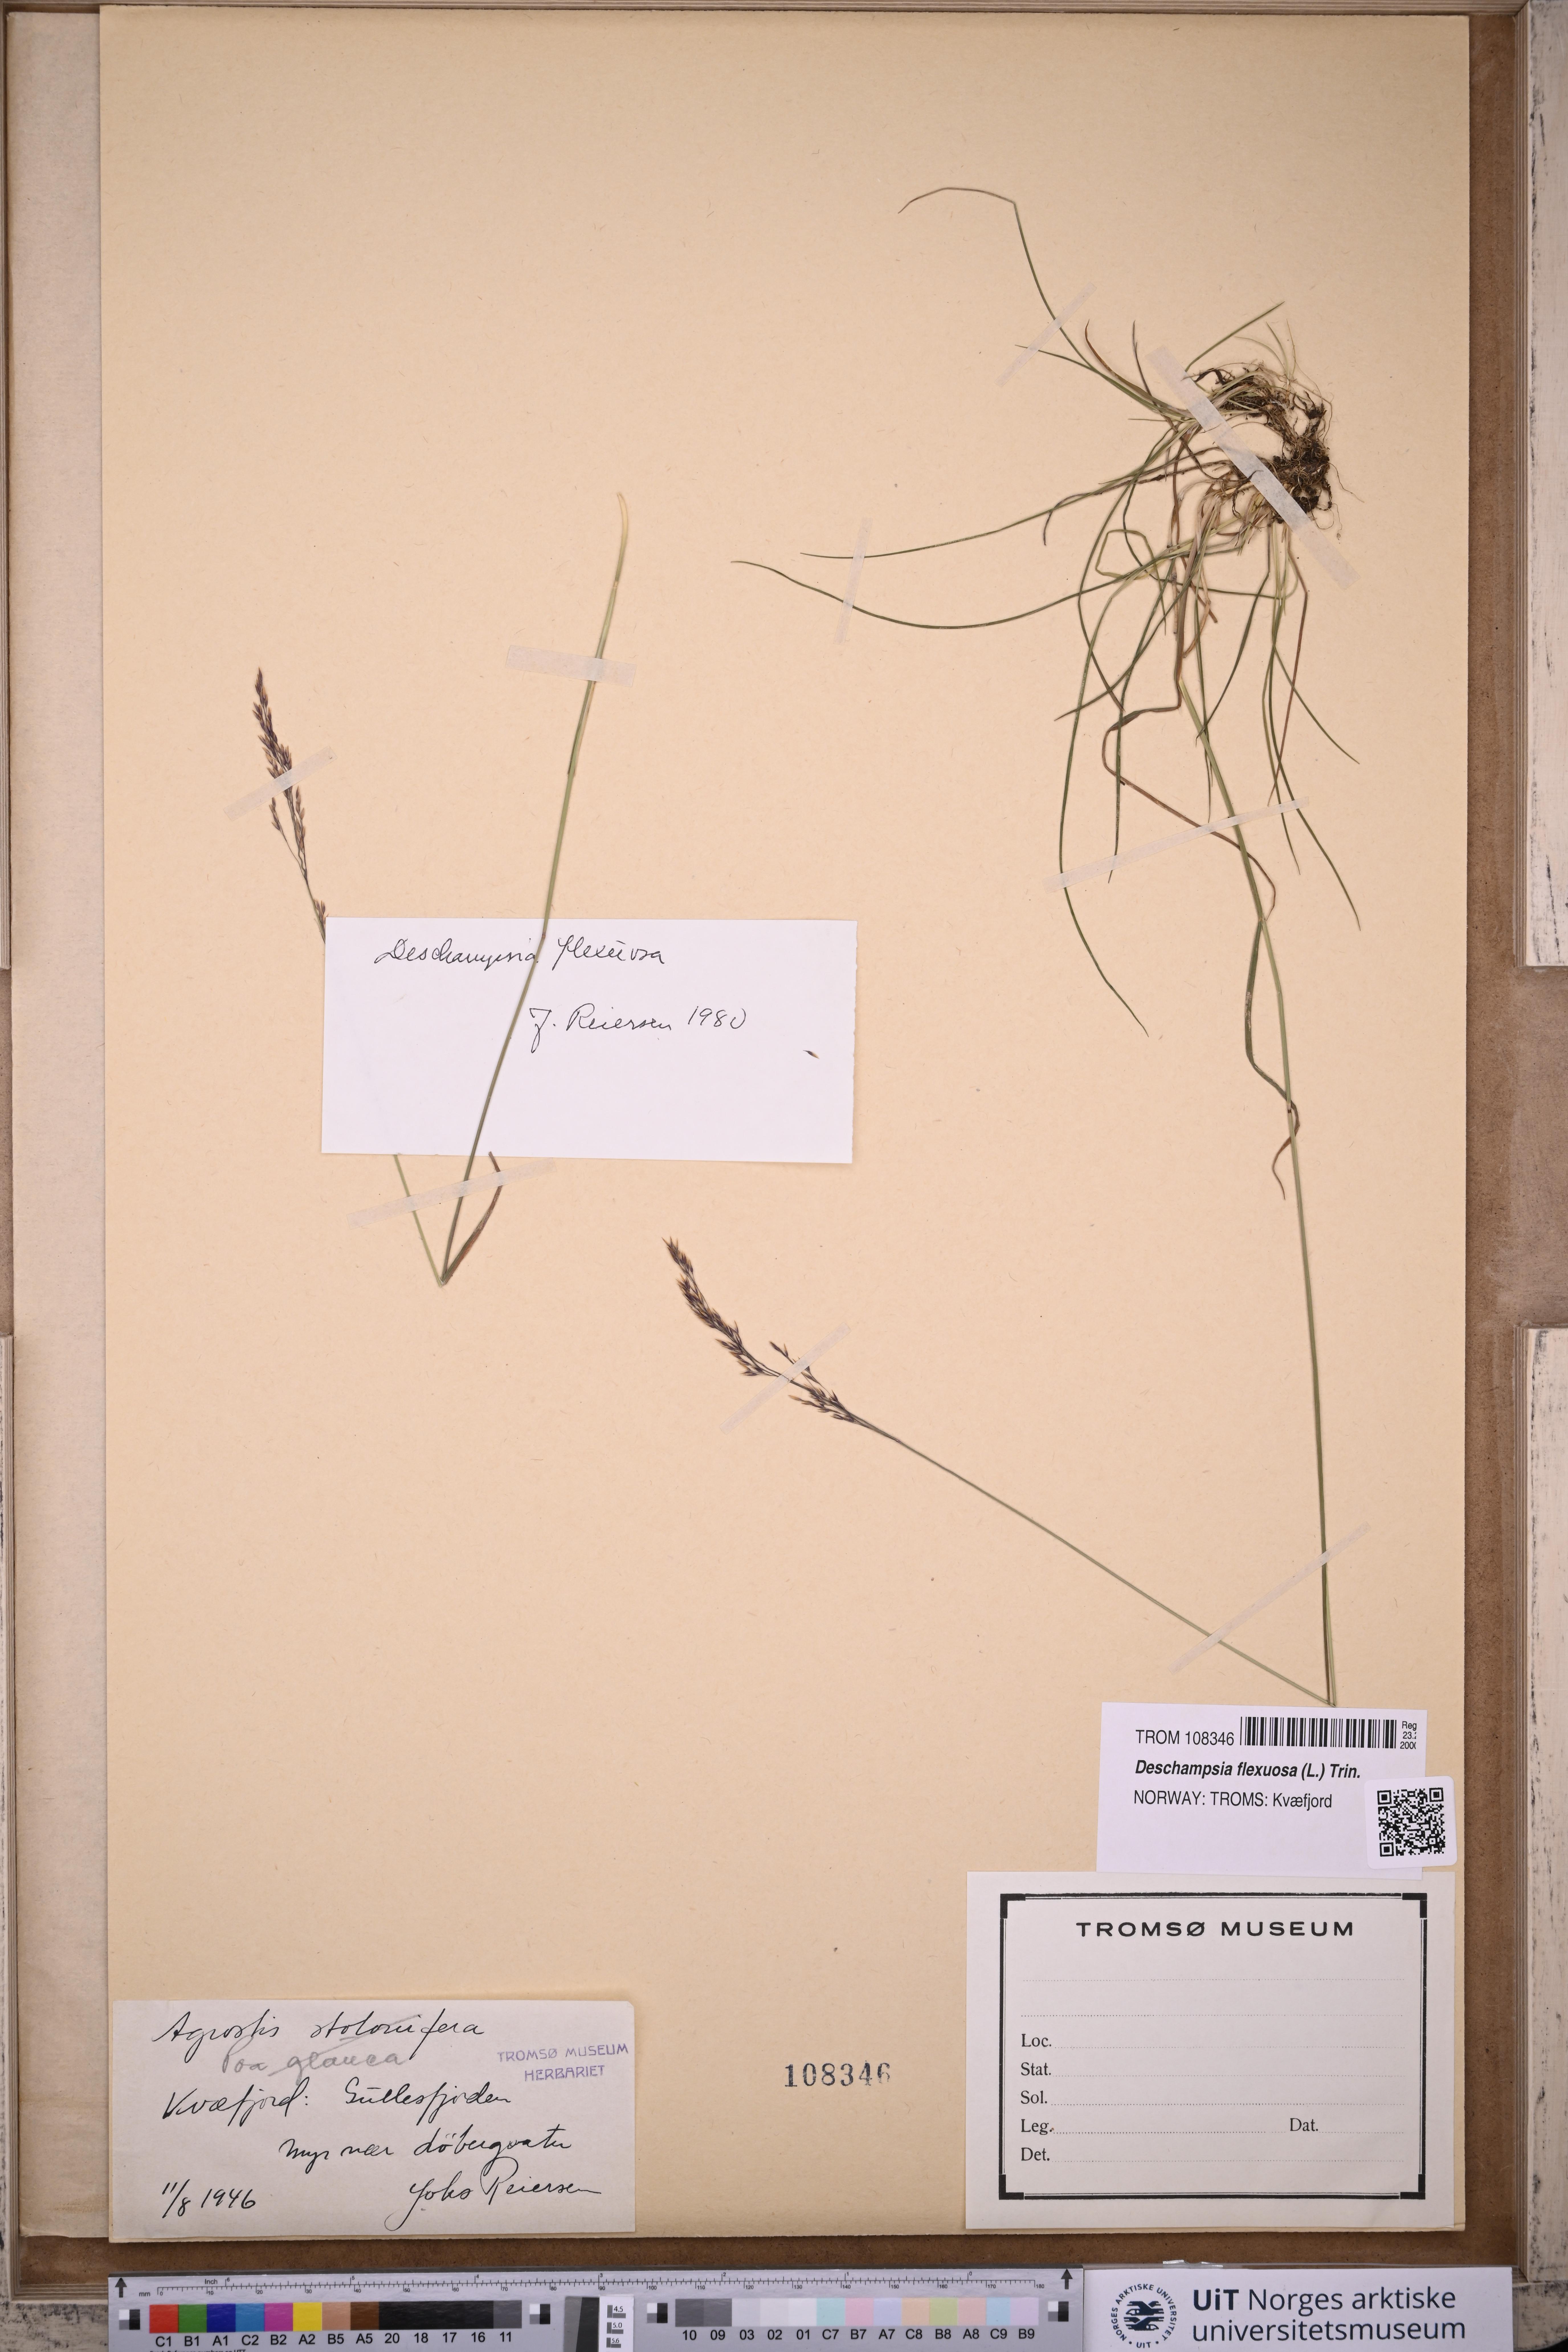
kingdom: Plantae
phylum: Tracheophyta
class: Liliopsida
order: Poales
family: Poaceae
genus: Avenella
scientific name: Avenella flexuosa
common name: Wavy hairgrass
